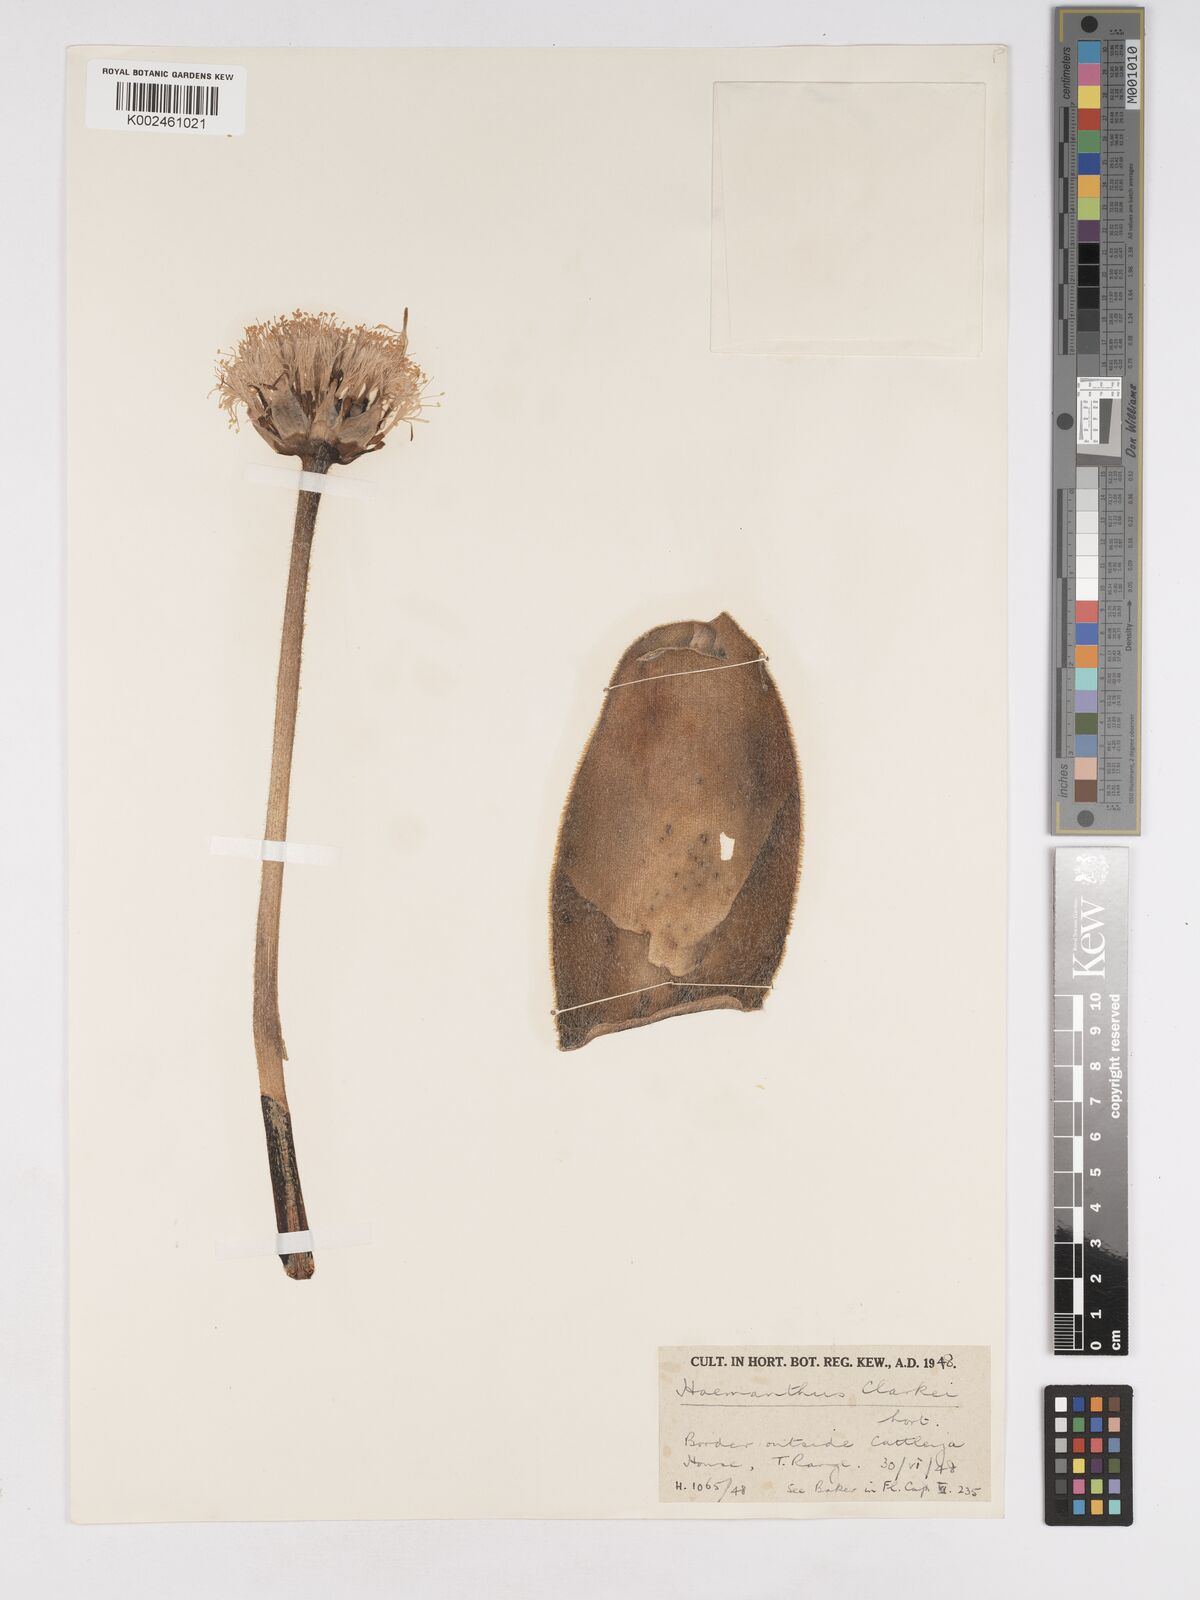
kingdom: Plantae
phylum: Tracheophyta
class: Liliopsida
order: Asparagales
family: Amaryllidaceae
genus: Haemanthus
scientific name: Haemanthus coccineus
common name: Cape-tulip
